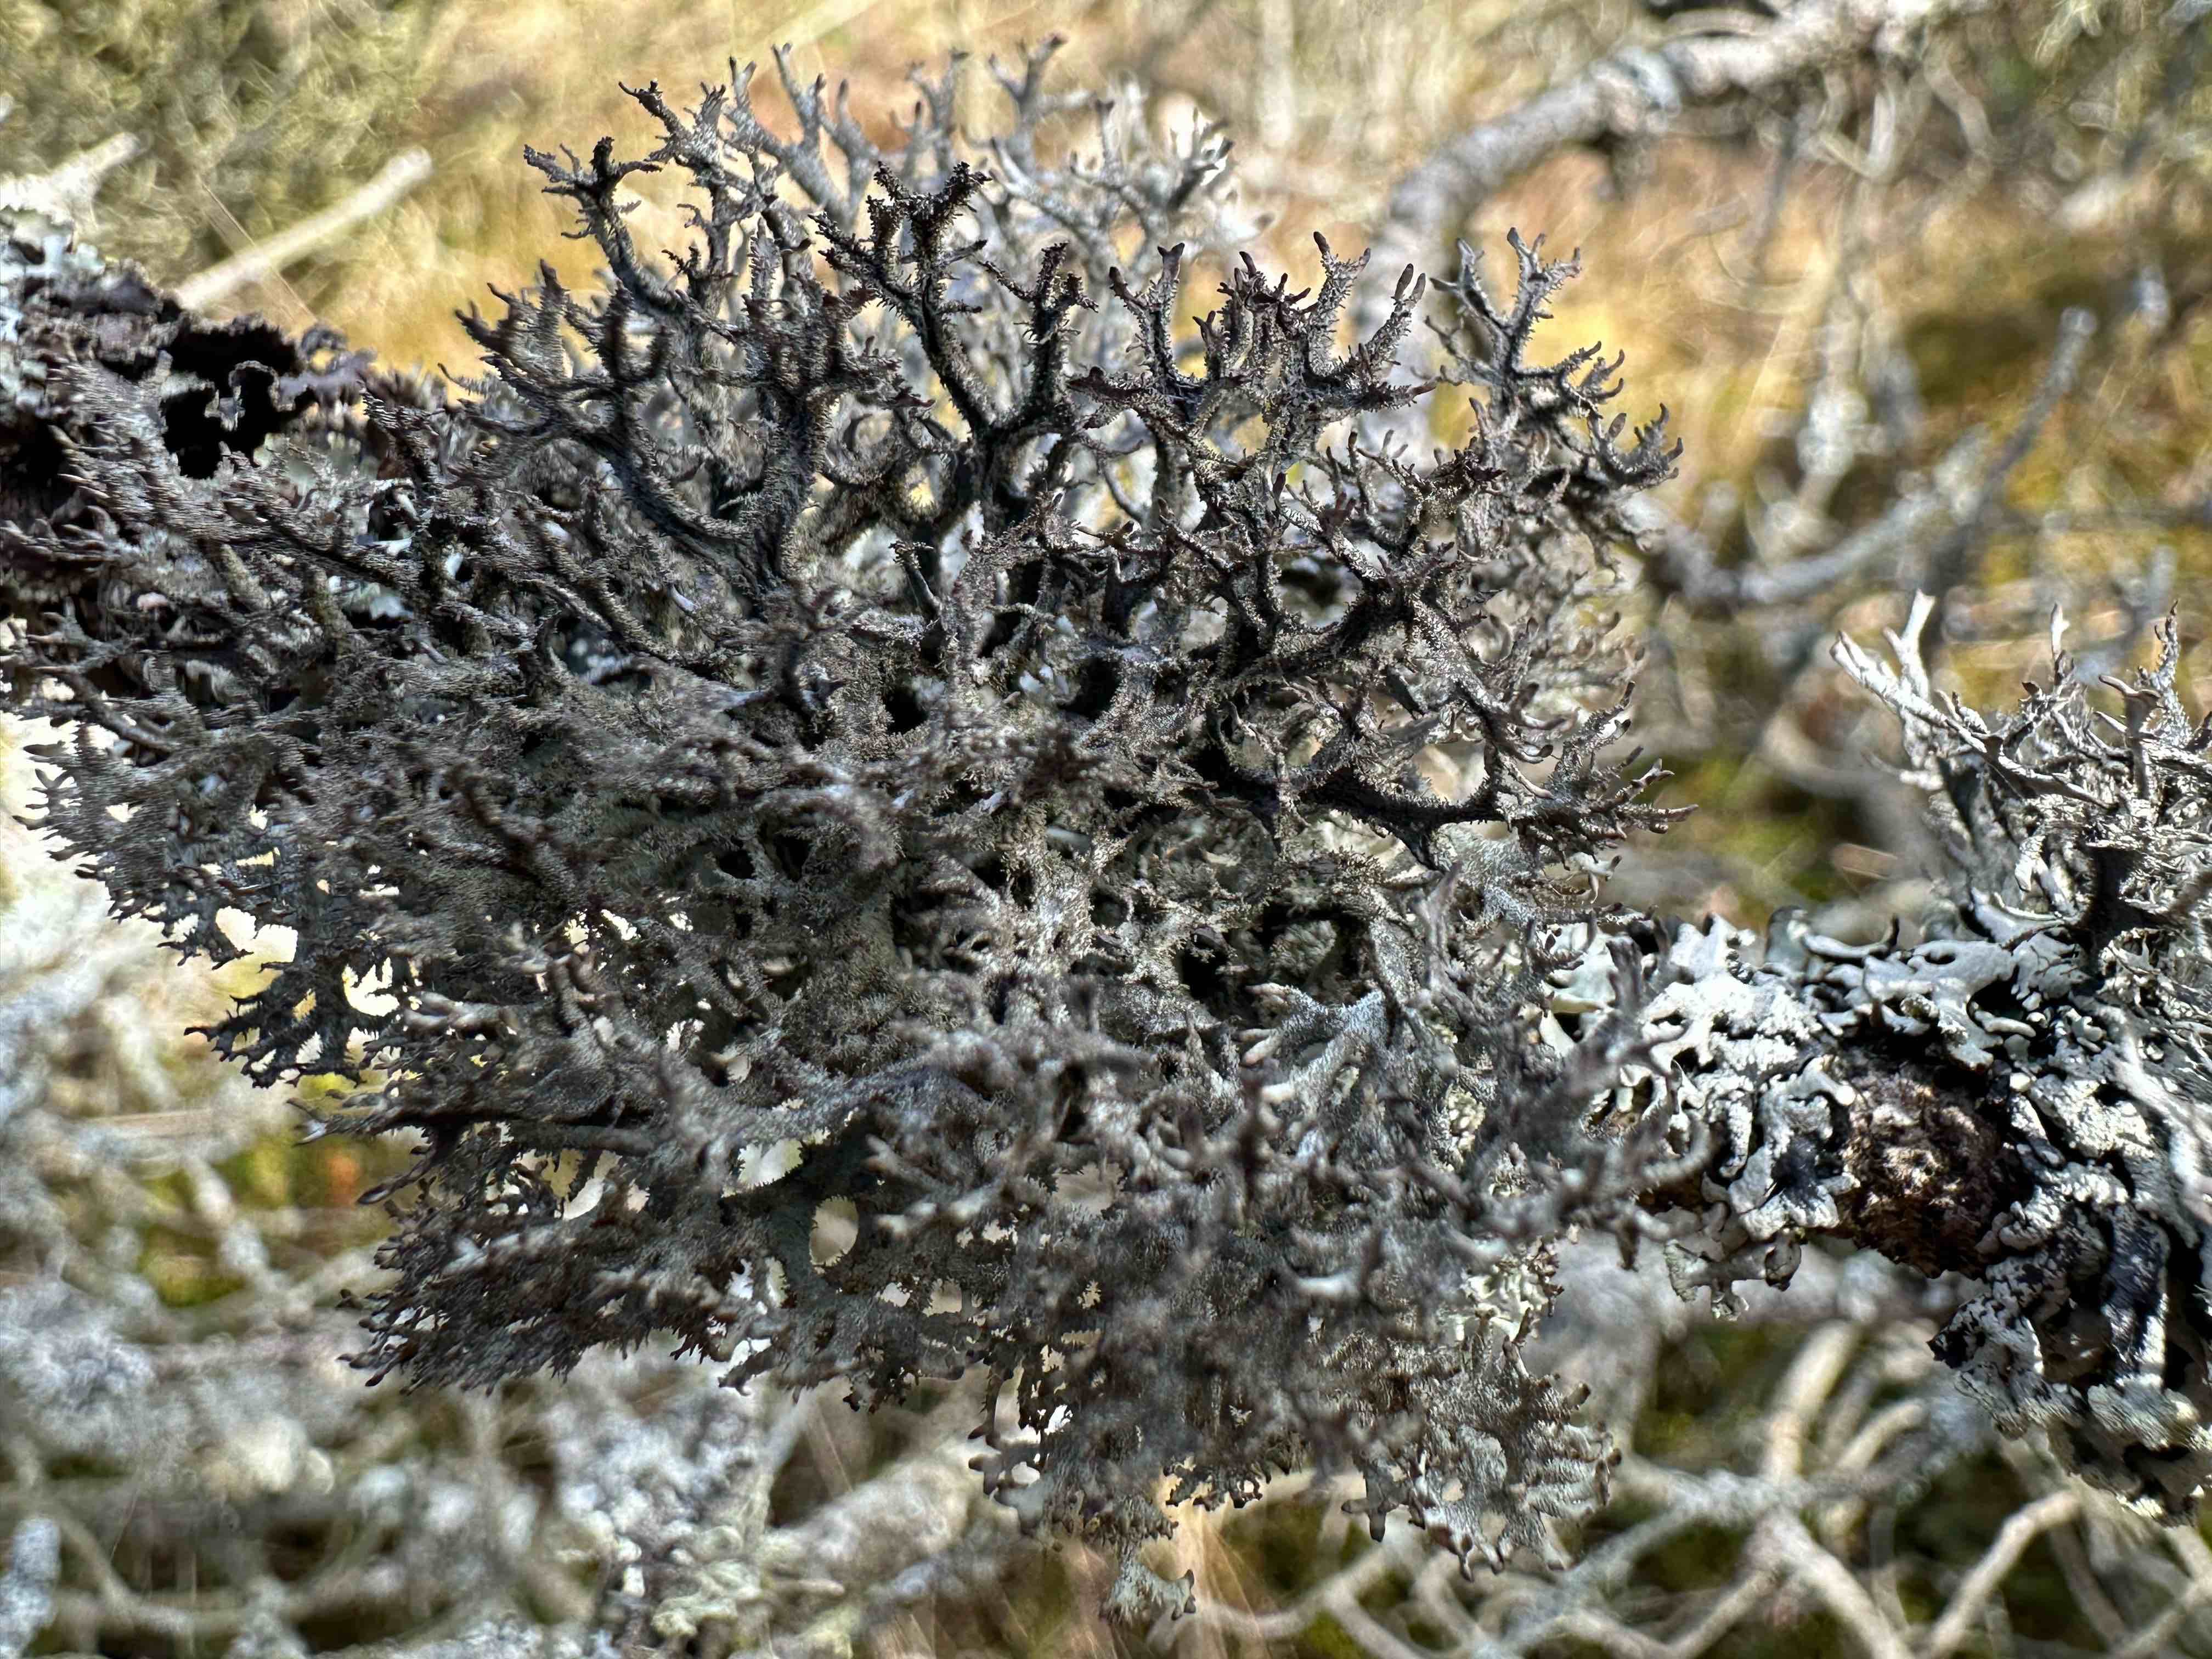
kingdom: Fungi
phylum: Ascomycota
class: Lecanoromycetes
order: Lecanorales
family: Parmeliaceae
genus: Pseudevernia
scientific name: Pseudevernia furfuracea
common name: grå fyrrelav
